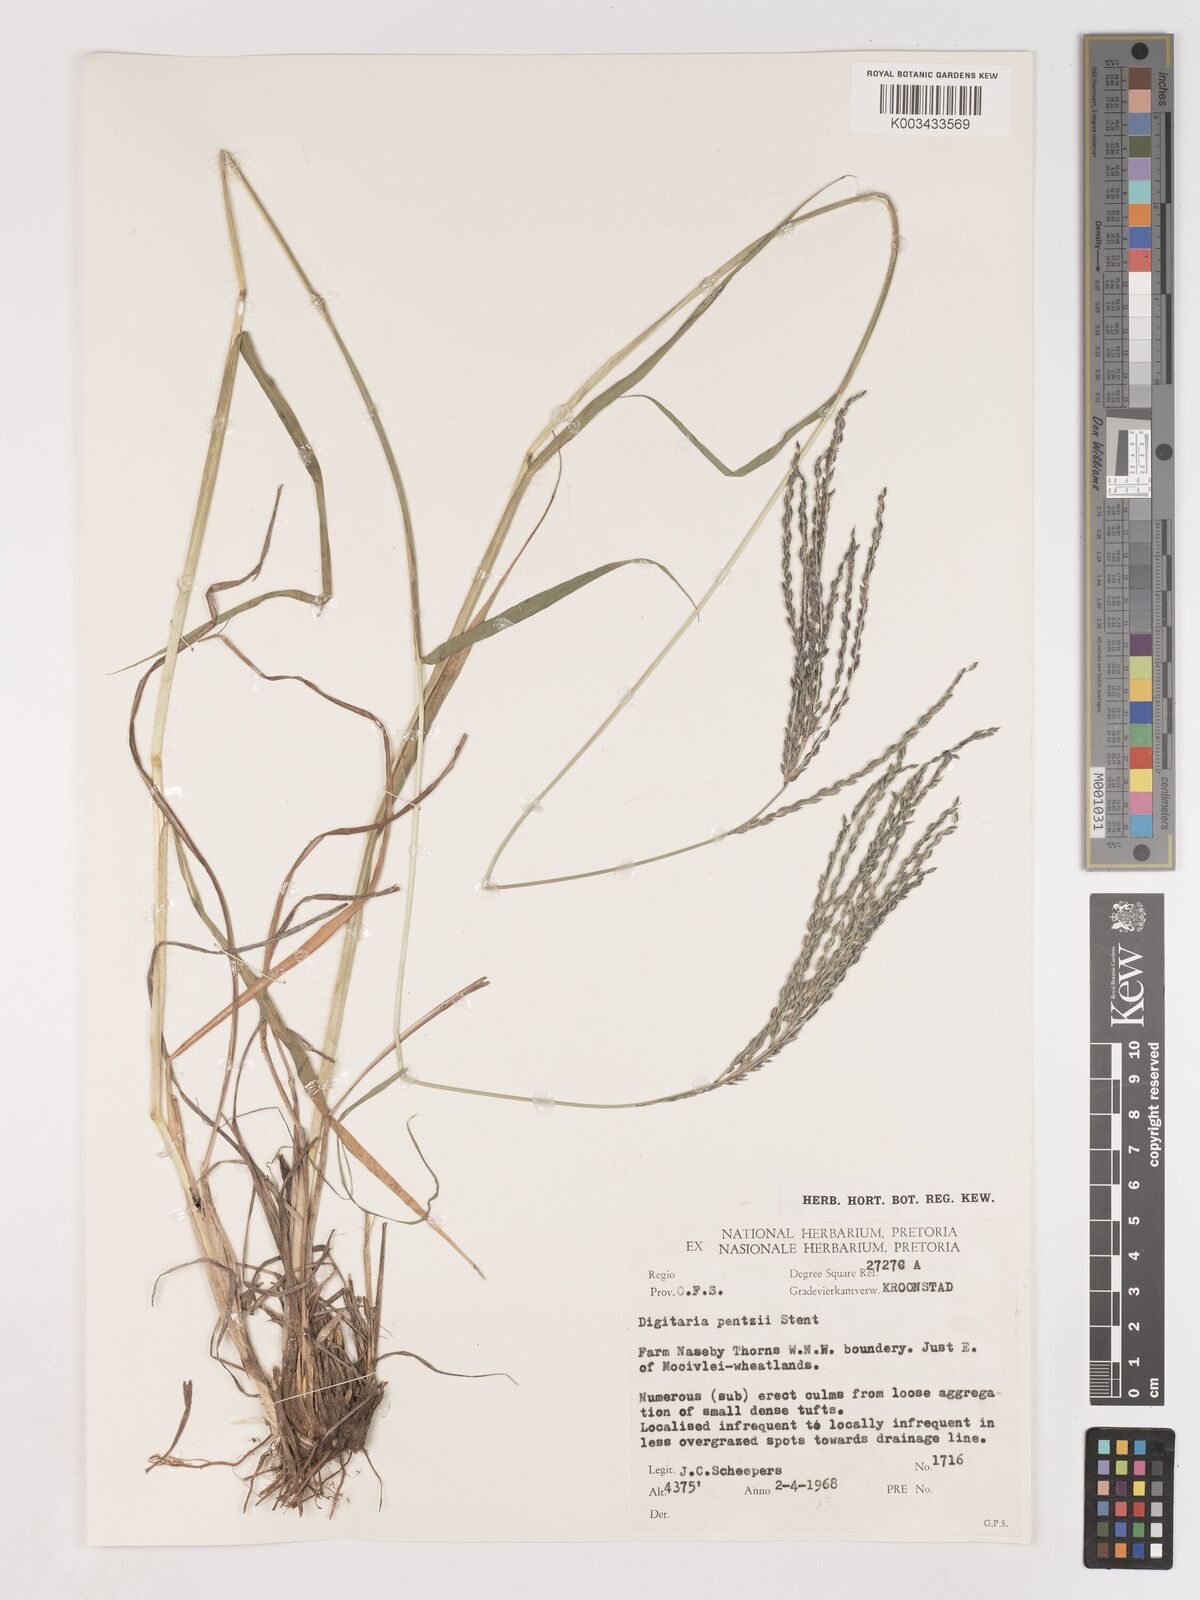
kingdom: Plantae
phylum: Tracheophyta
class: Liliopsida
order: Poales
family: Poaceae
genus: Digitaria
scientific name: Digitaria eriantha
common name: Digitgrass
